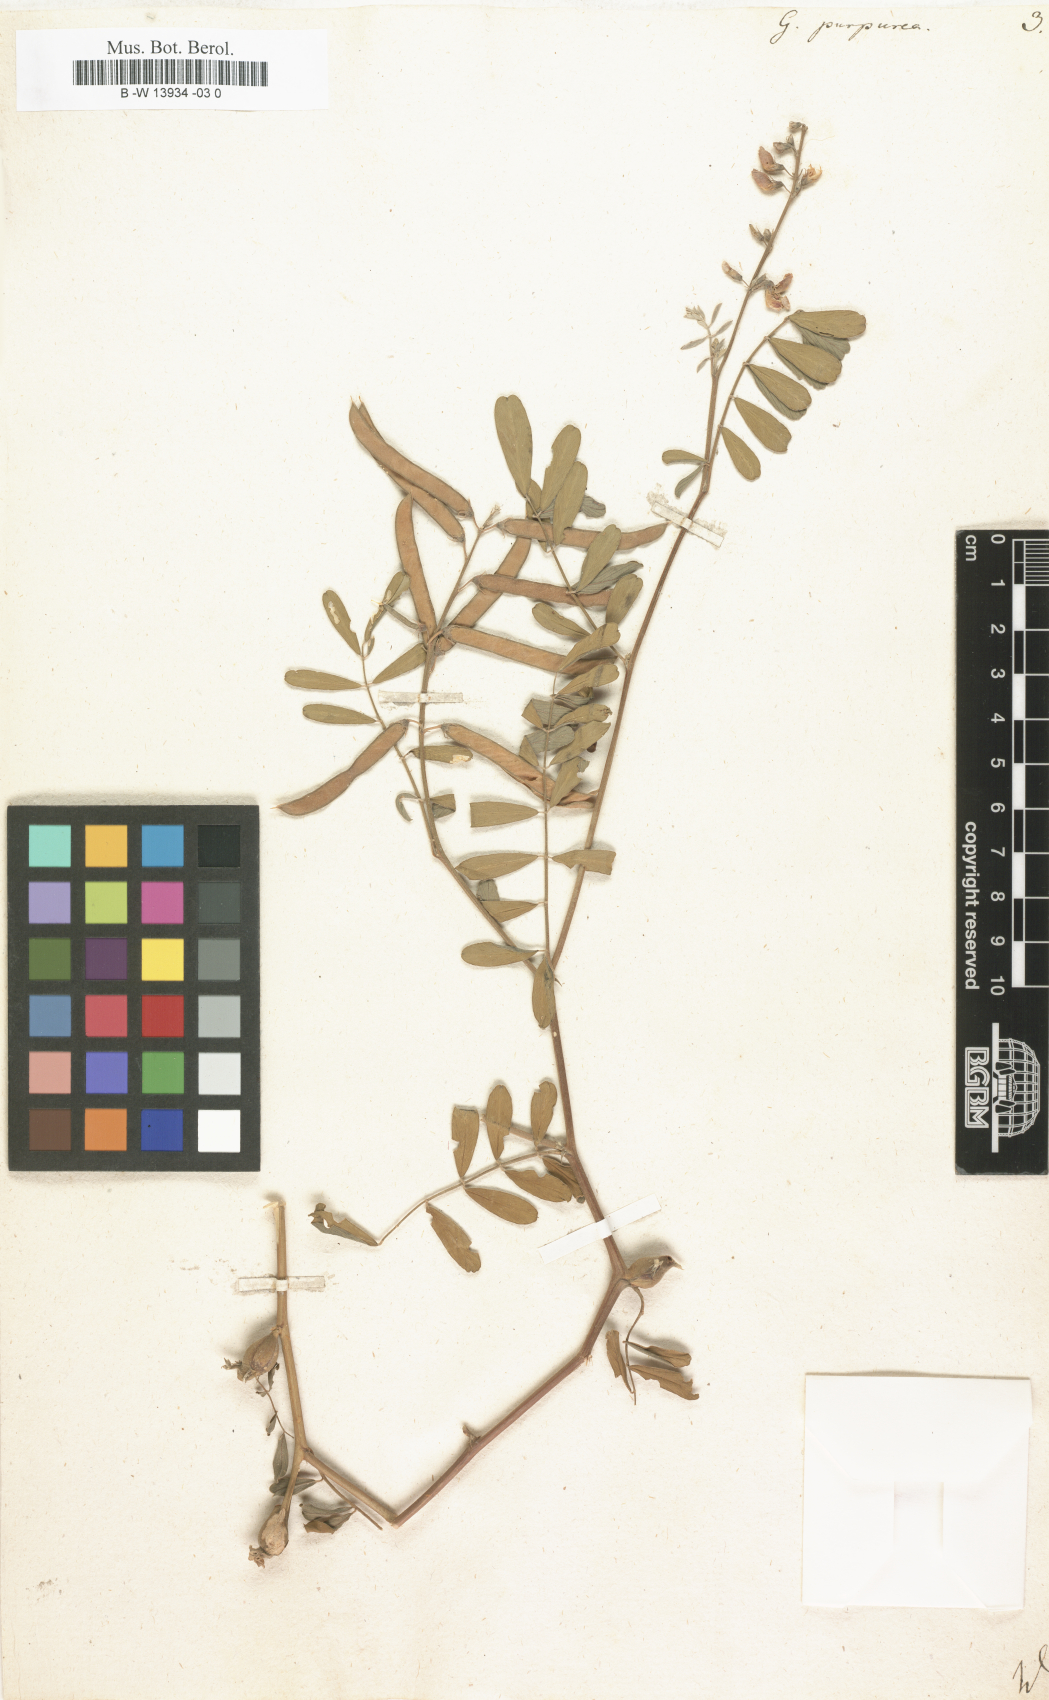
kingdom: Plantae
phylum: Tracheophyta
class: Magnoliopsida
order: Fabales
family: Fabaceae
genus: Tephrosia
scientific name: Tephrosia purpurea
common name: Fishpoison
